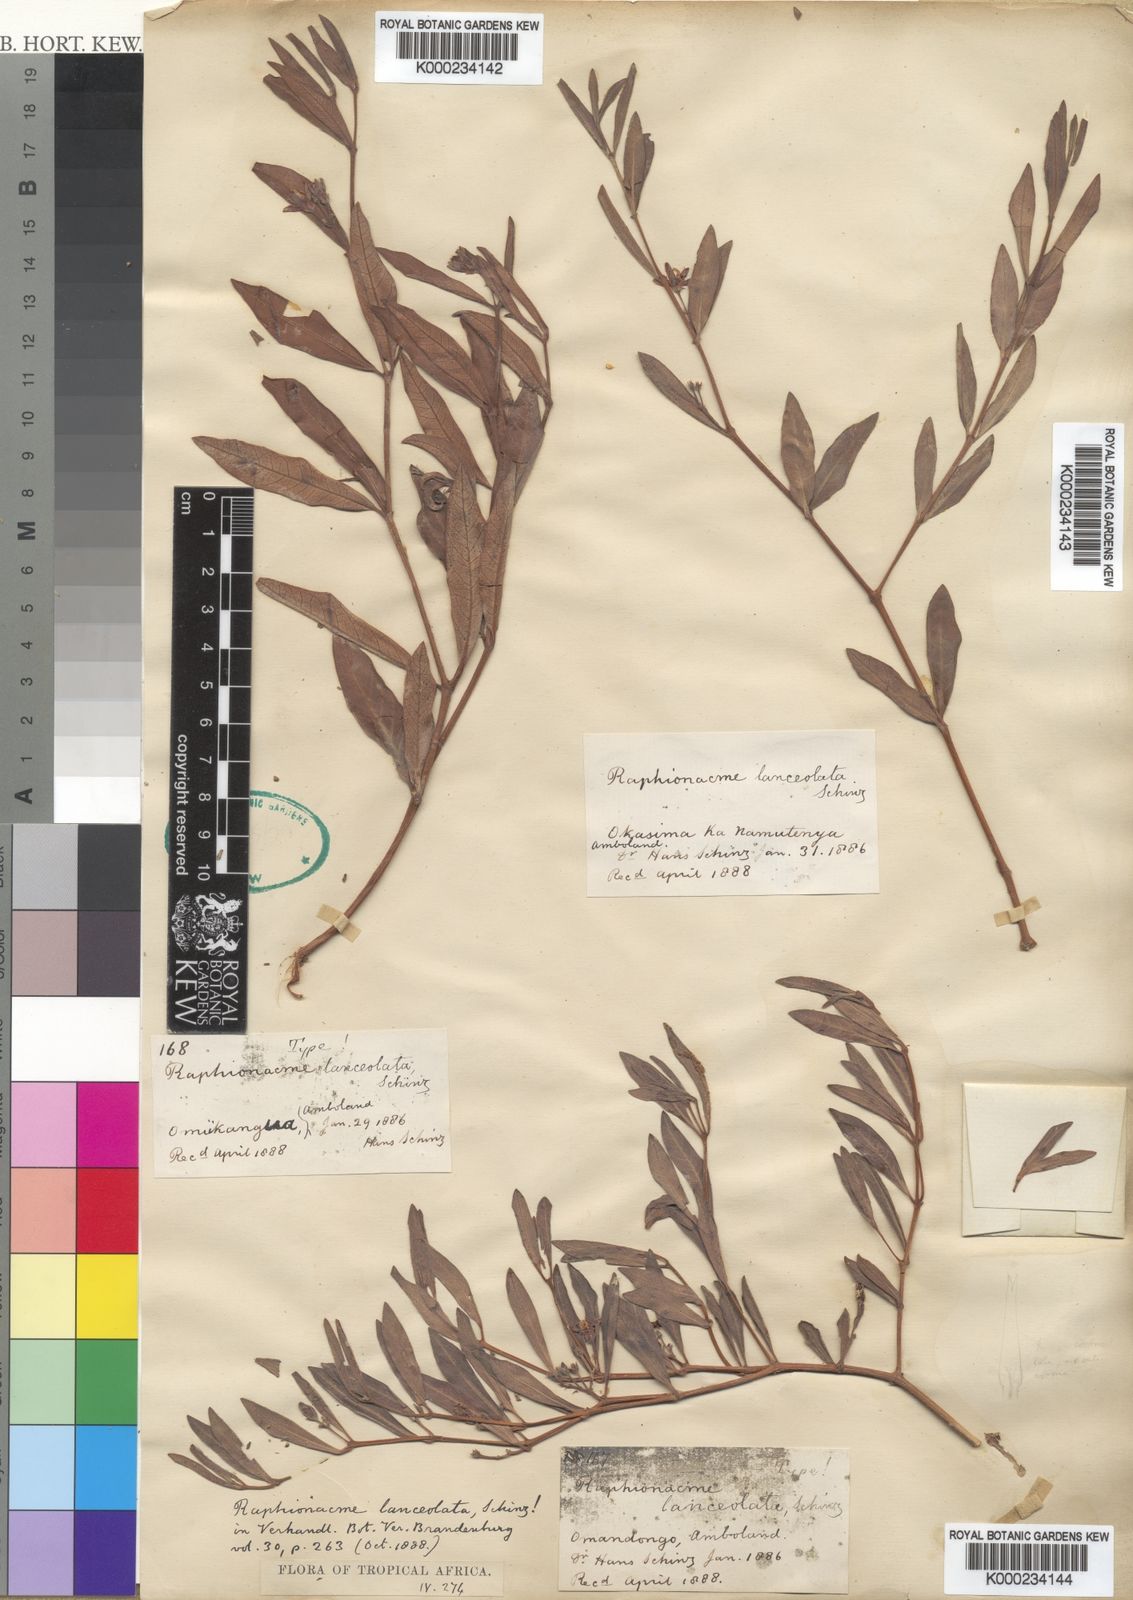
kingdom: Plantae
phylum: Tracheophyta
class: Magnoliopsida
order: Gentianales
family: Apocynaceae
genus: Raphionacme
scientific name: Raphionacme lanceolata
